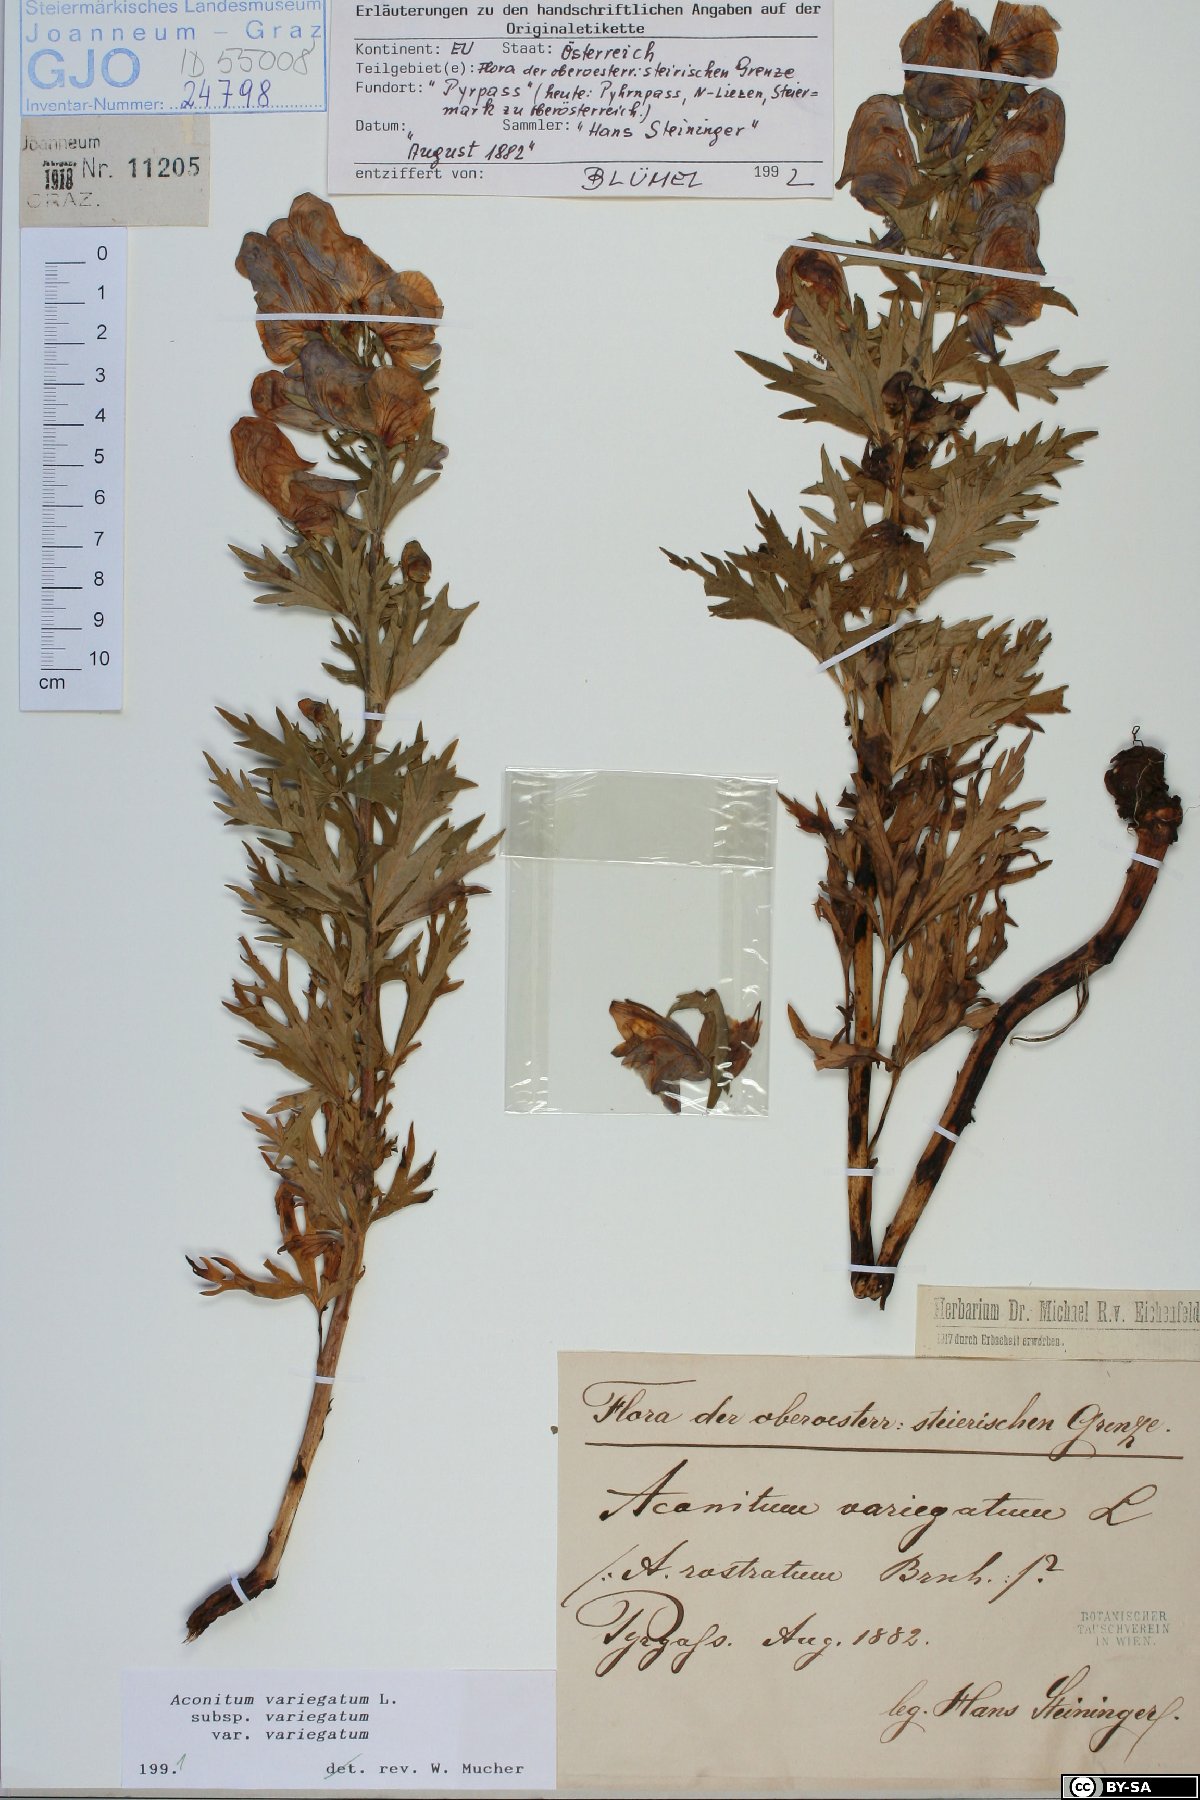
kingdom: Plantae
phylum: Tracheophyta
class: Magnoliopsida
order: Ranunculales
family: Ranunculaceae
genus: Aconitum
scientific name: Aconitum variegatum
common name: Manchurian monkshood
